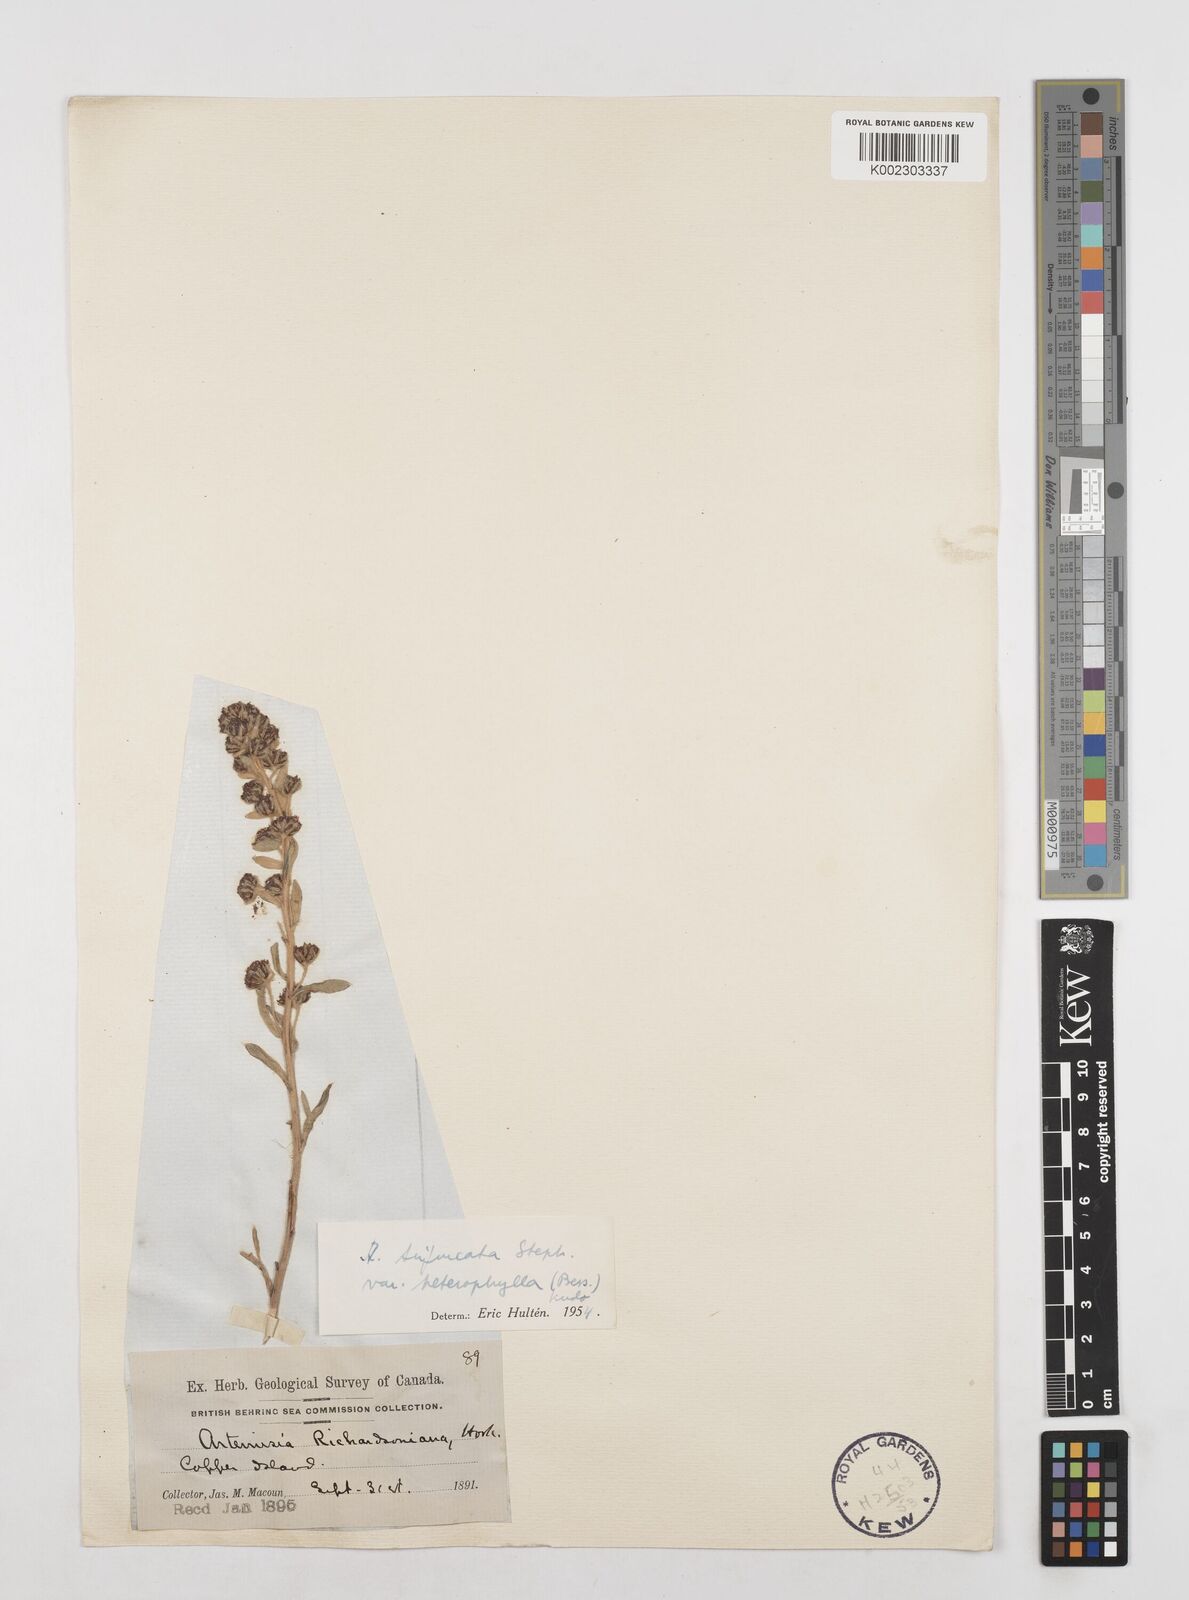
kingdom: Plantae
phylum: Tracheophyta
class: Magnoliopsida
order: Asterales
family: Asteraceae
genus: Artemisia
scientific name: Artemisia furcata
